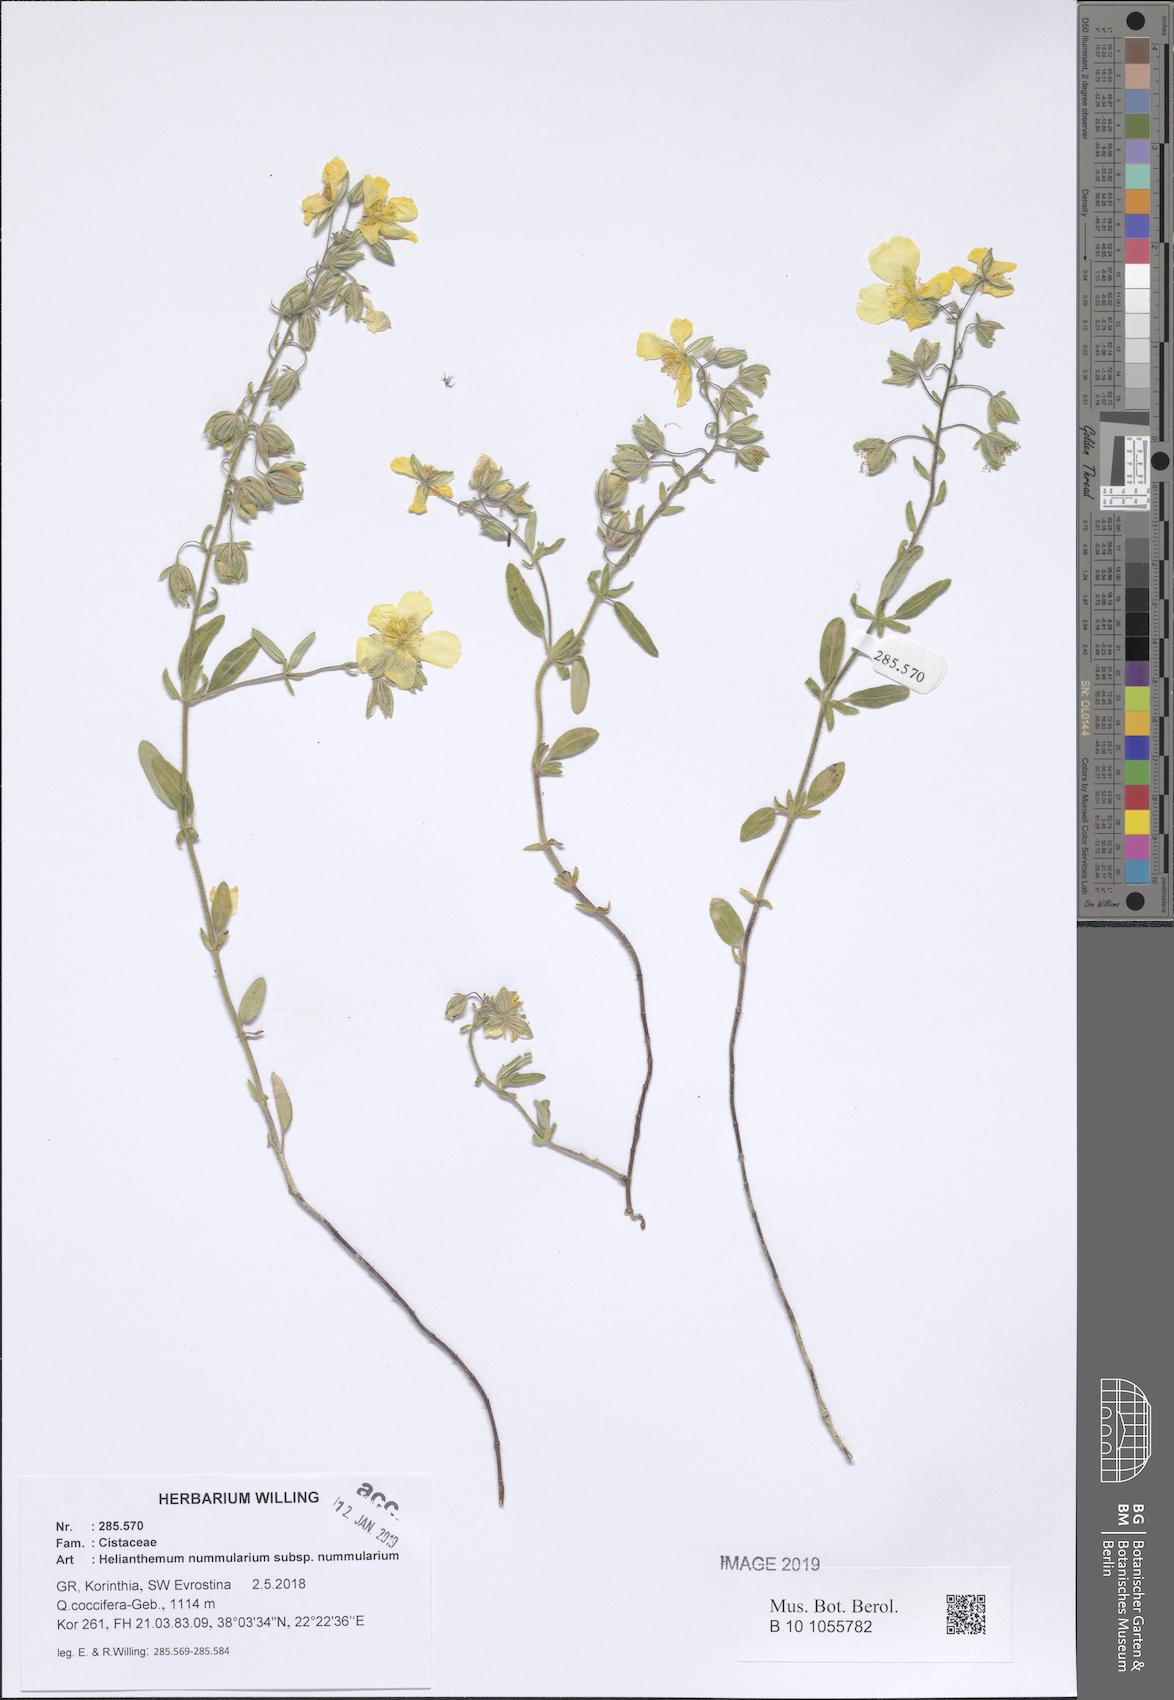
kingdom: Plantae
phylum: Tracheophyta
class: Magnoliopsida
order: Malvales
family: Cistaceae
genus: Helianthemum
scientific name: Helianthemum nummularium
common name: Common rock-rose
